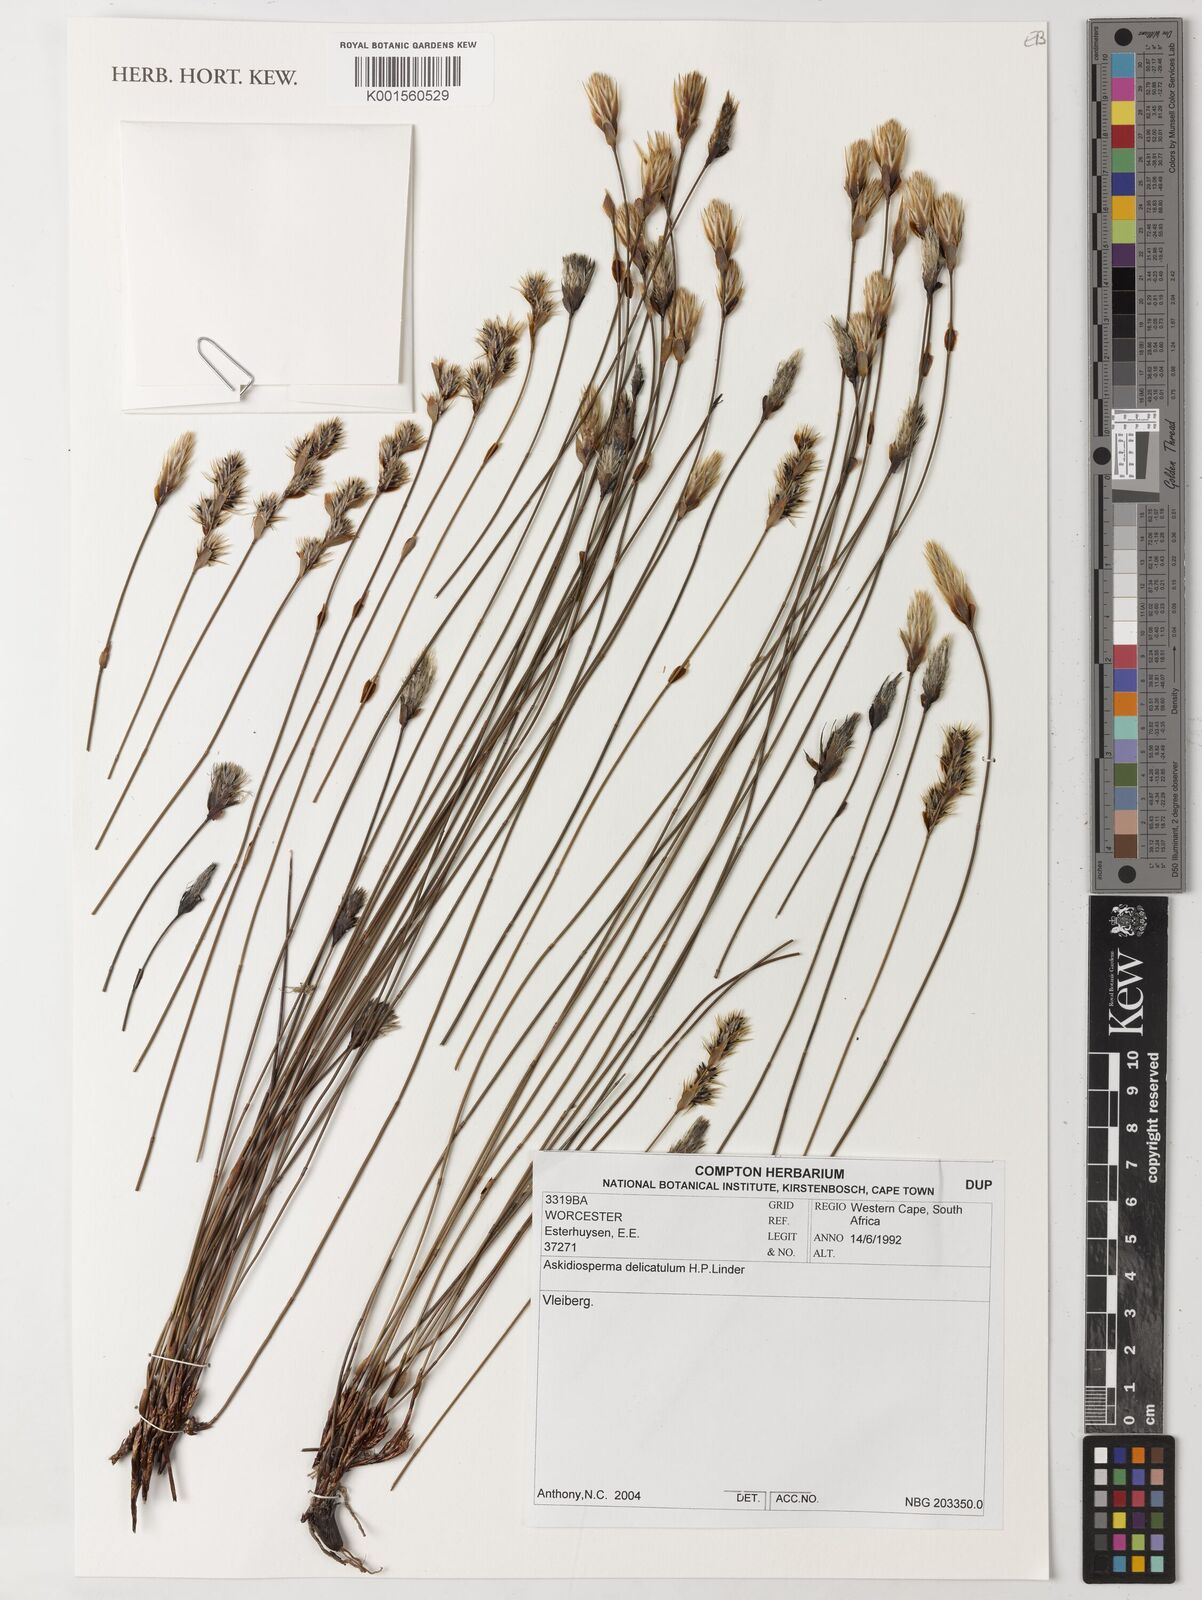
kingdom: Plantae
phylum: Tracheophyta
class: Liliopsida
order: Poales
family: Restionaceae
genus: Askidiosperma
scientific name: Askidiosperma delicatulum
